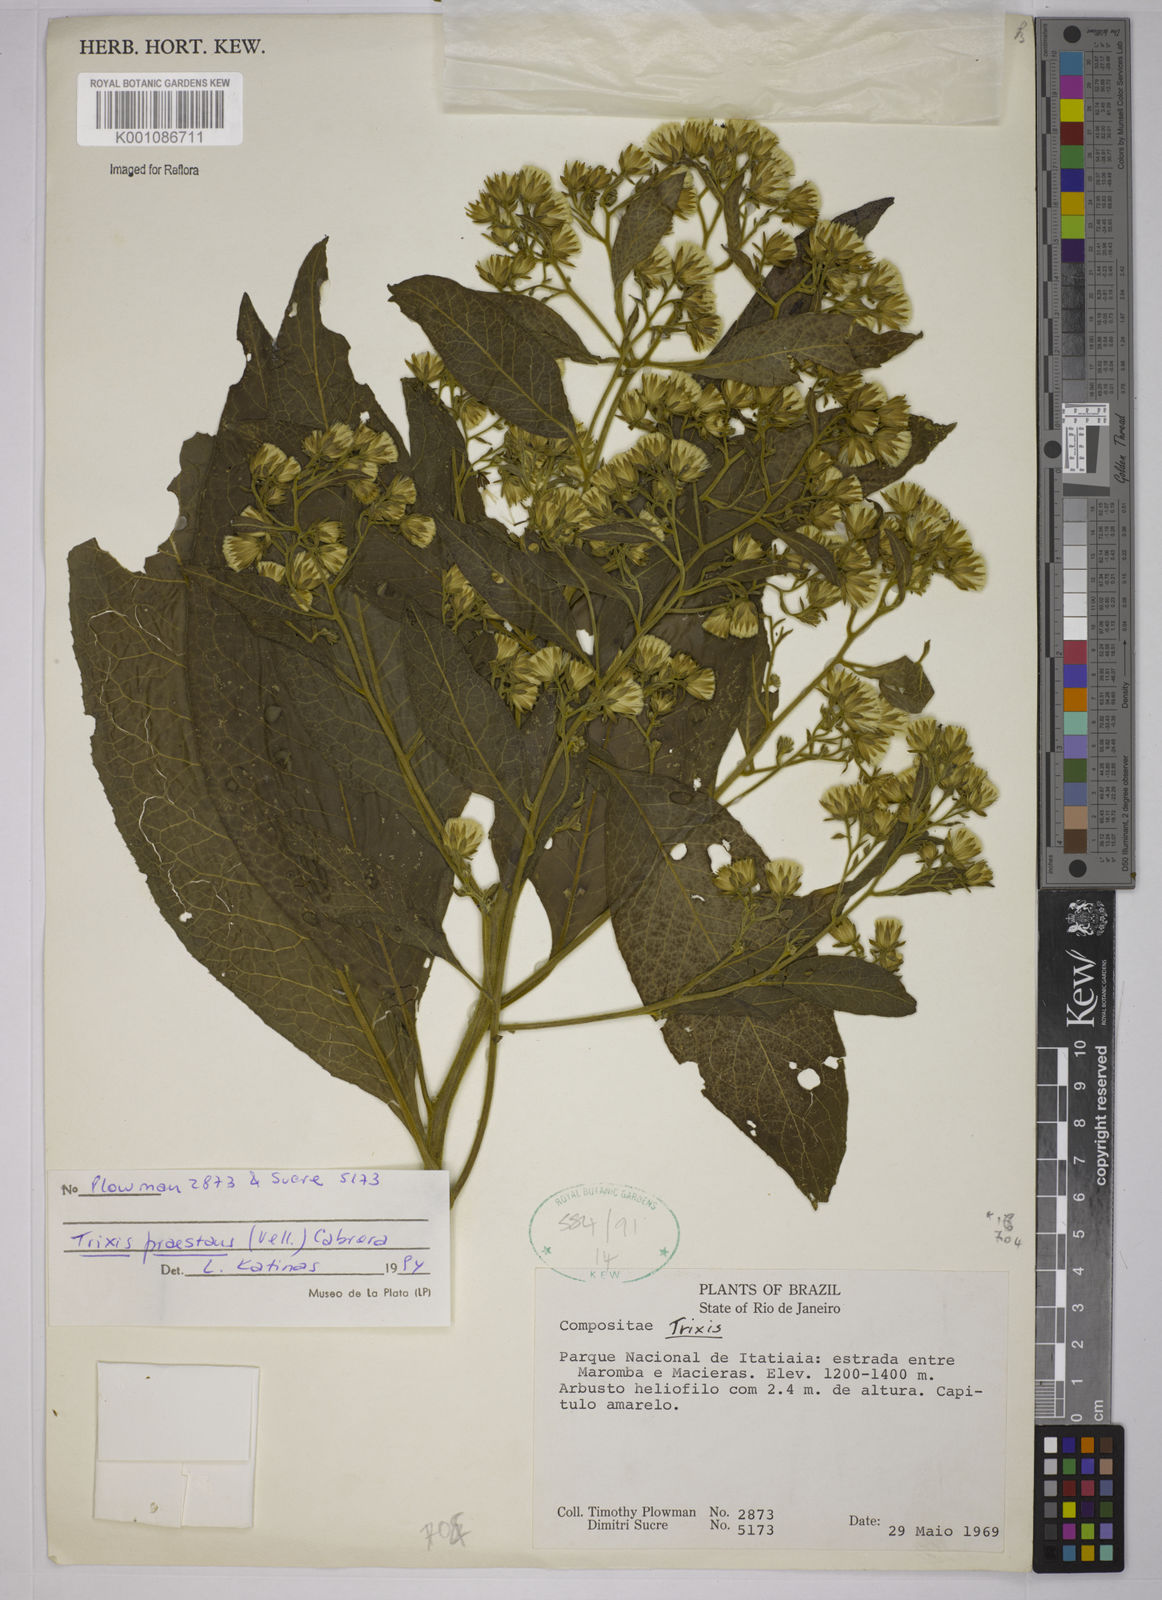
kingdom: Plantae
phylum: Tracheophyta
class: Magnoliopsida
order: Asterales
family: Asteraceae
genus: Trixis
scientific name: Trixis praestans
